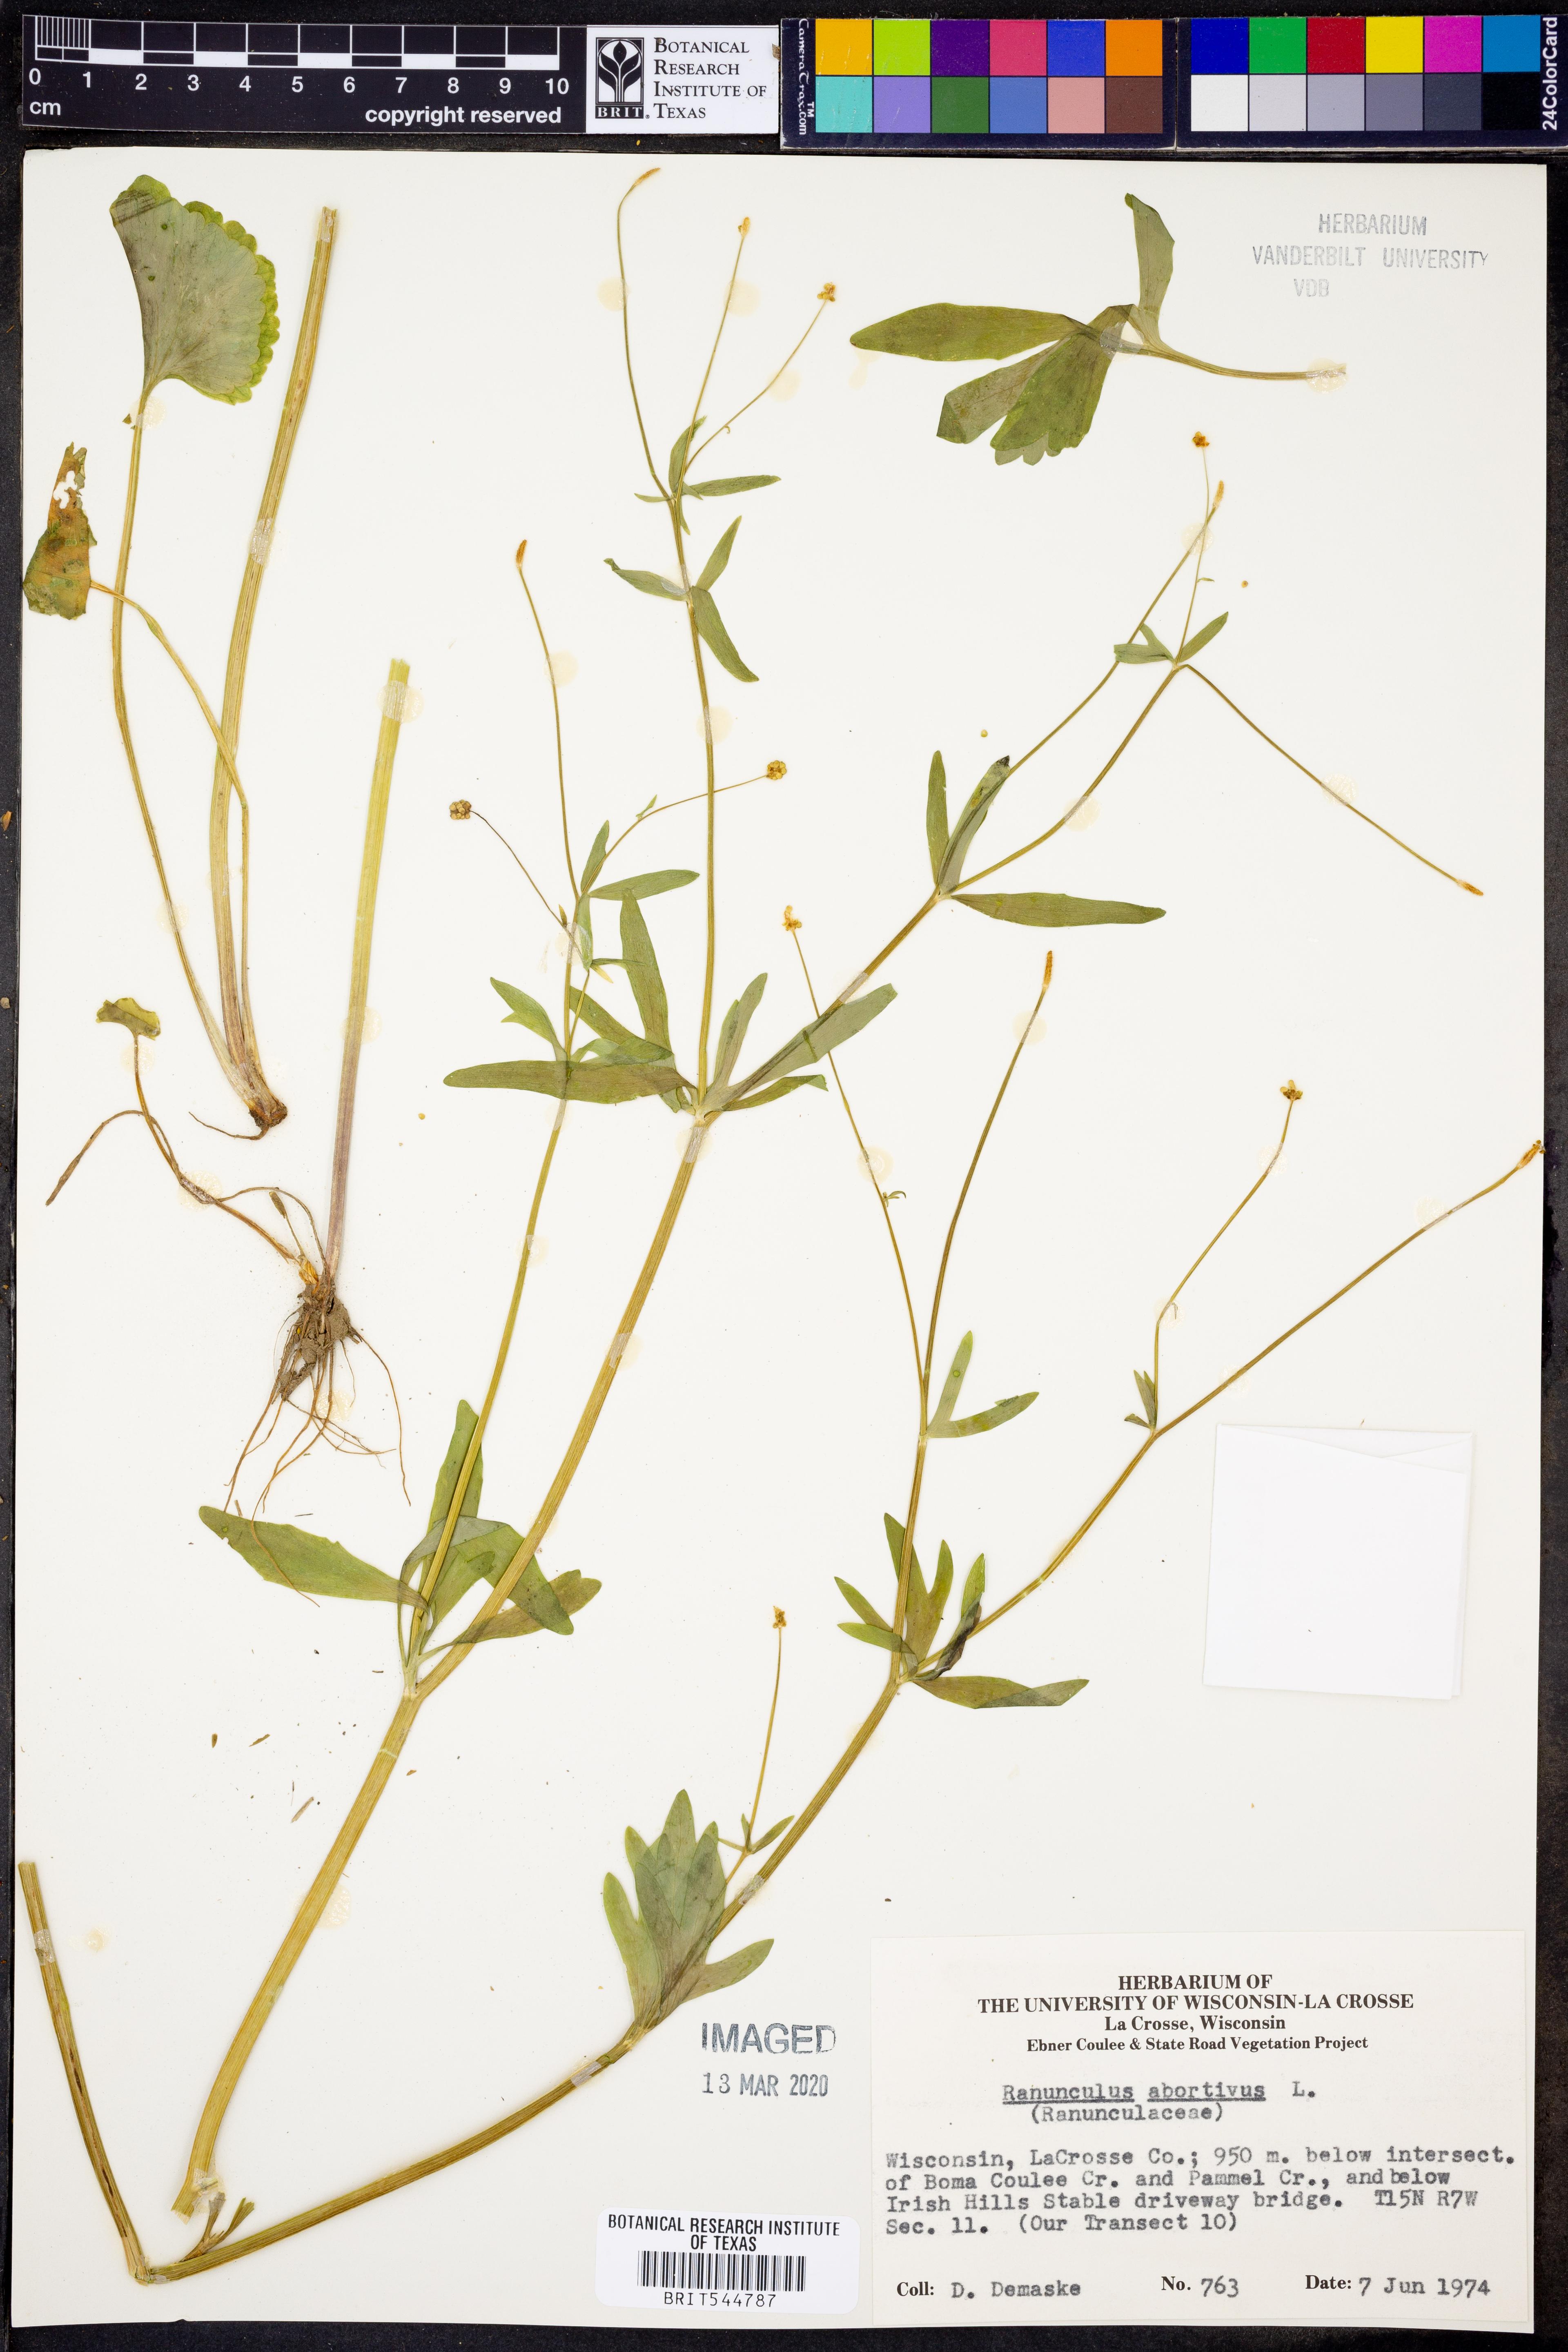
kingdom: Plantae
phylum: Tracheophyta
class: Magnoliopsida
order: Ranunculales
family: Ranunculaceae
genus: Ranunculus
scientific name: Ranunculus abortivus
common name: Early wood buttercup
